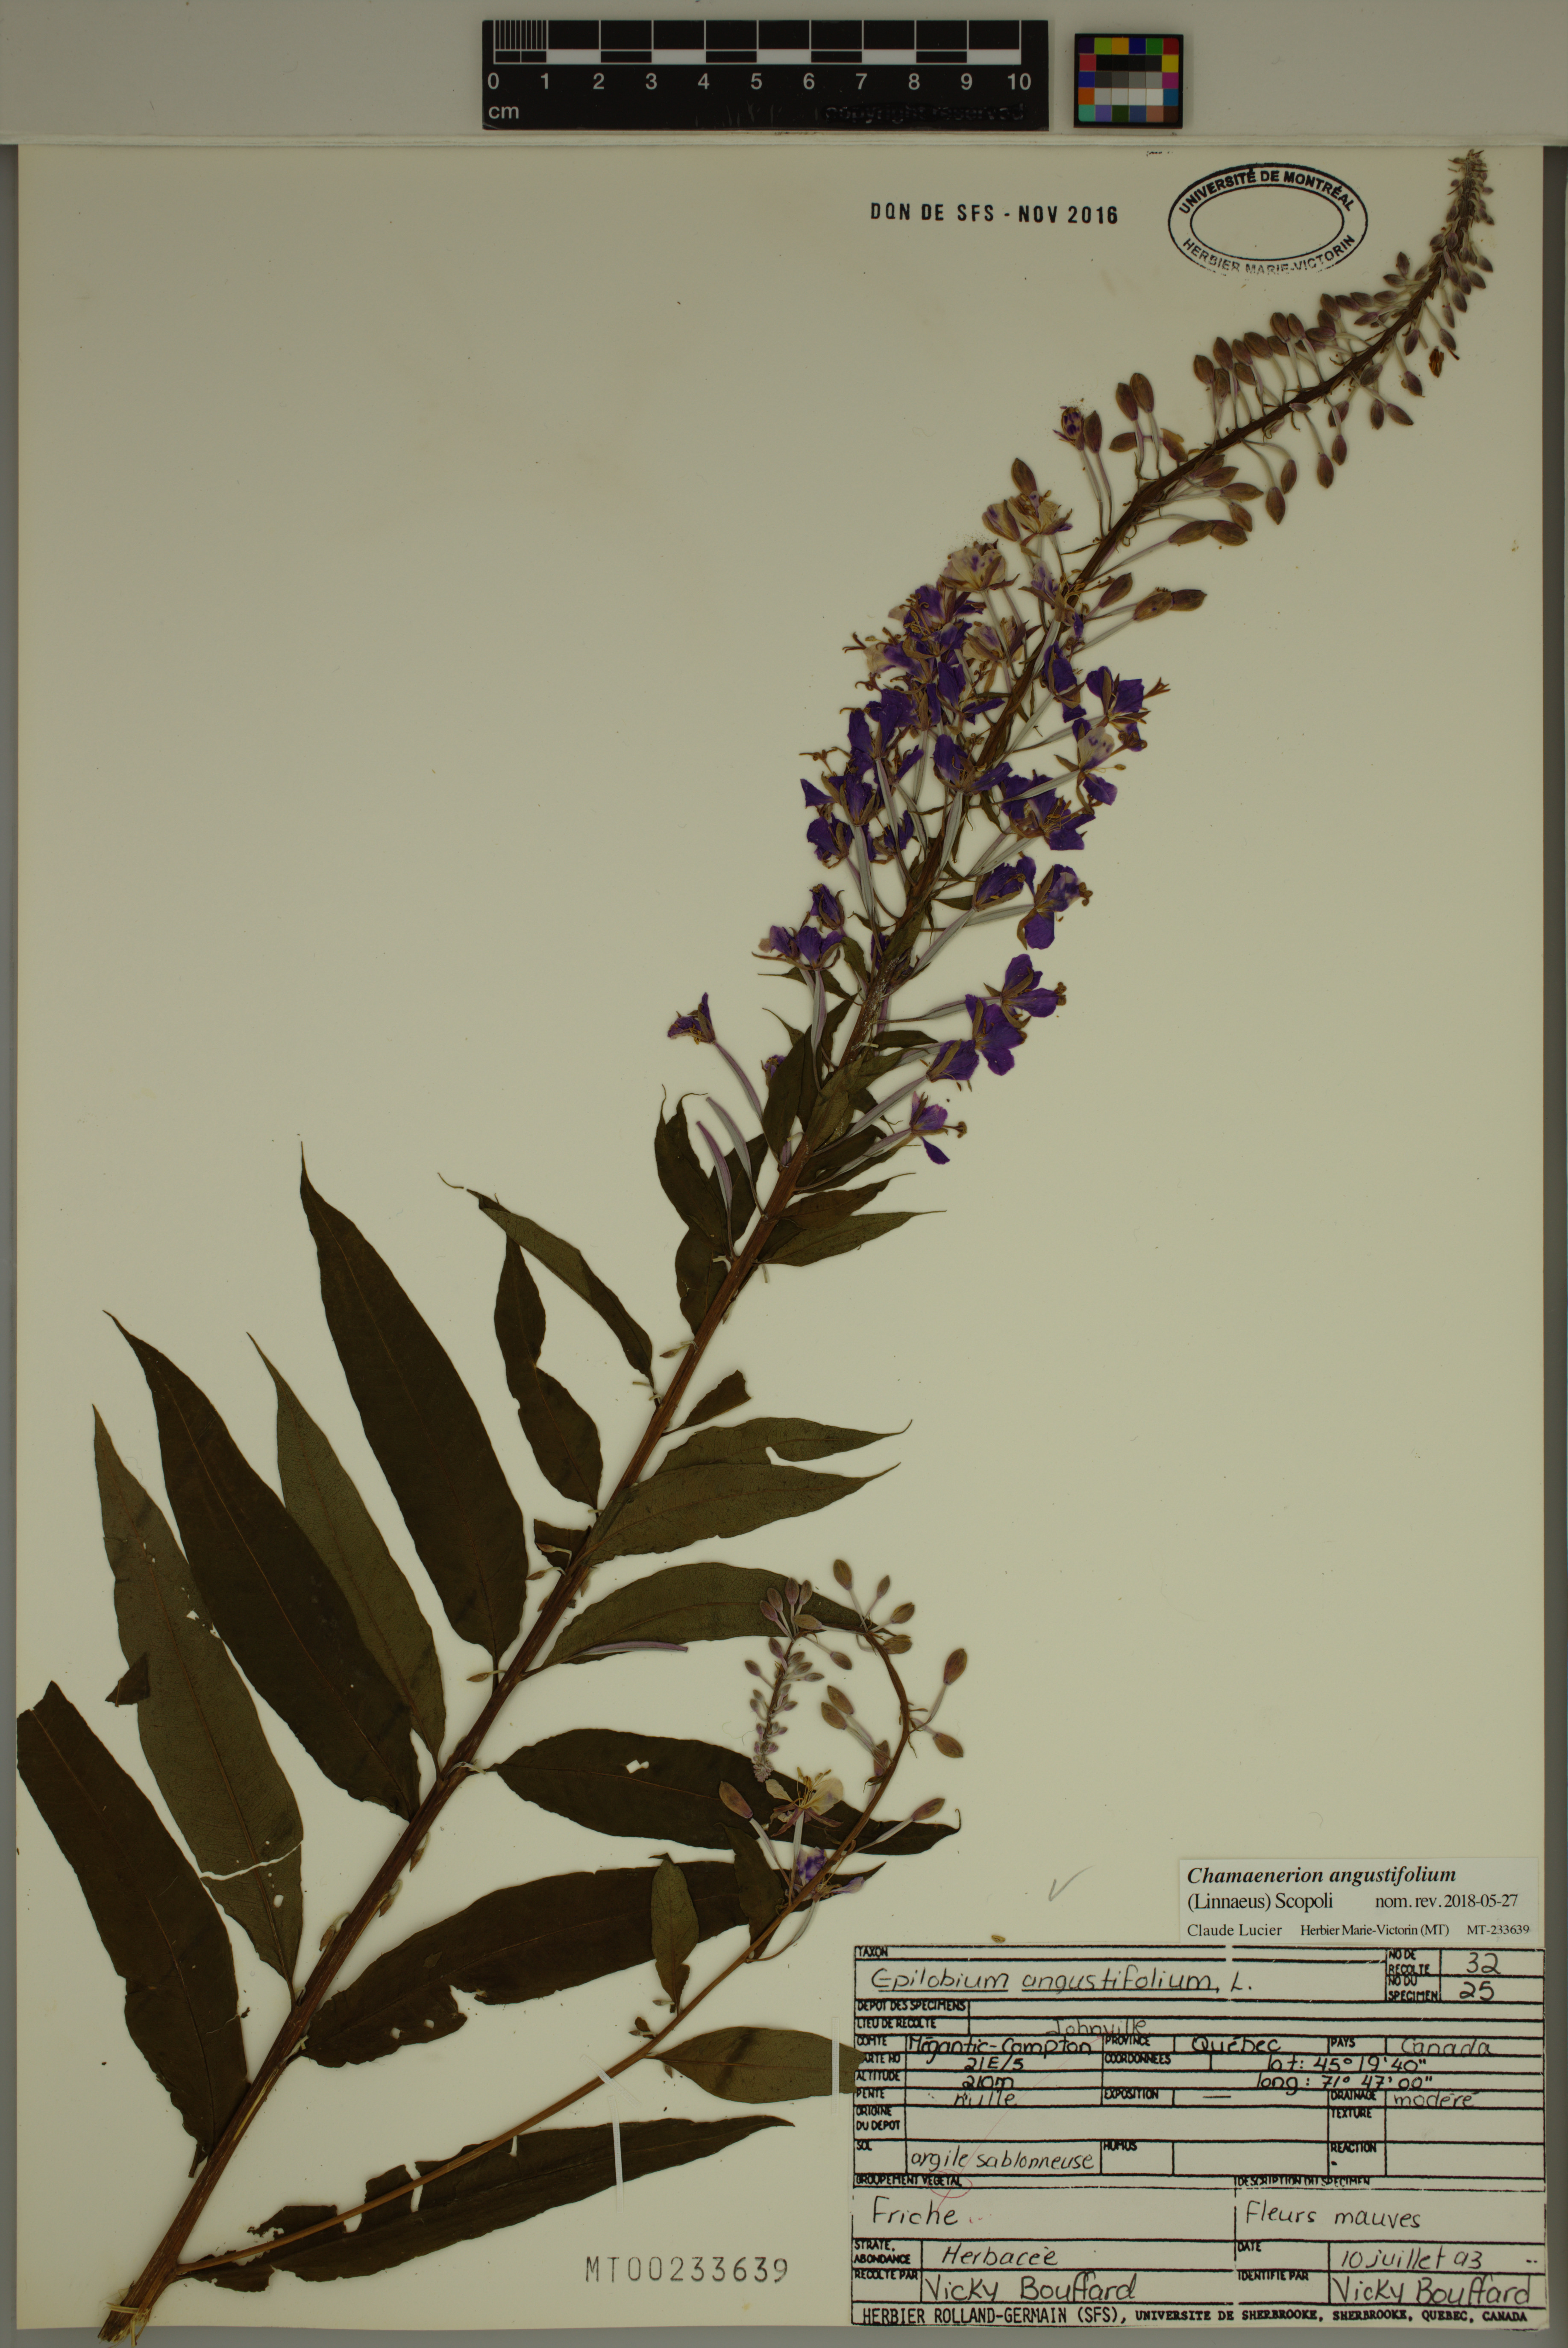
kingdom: Plantae
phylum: Tracheophyta
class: Magnoliopsida
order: Myrtales
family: Onagraceae
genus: Chamaenerion
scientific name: Chamaenerion angustifolium
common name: Fireweed
